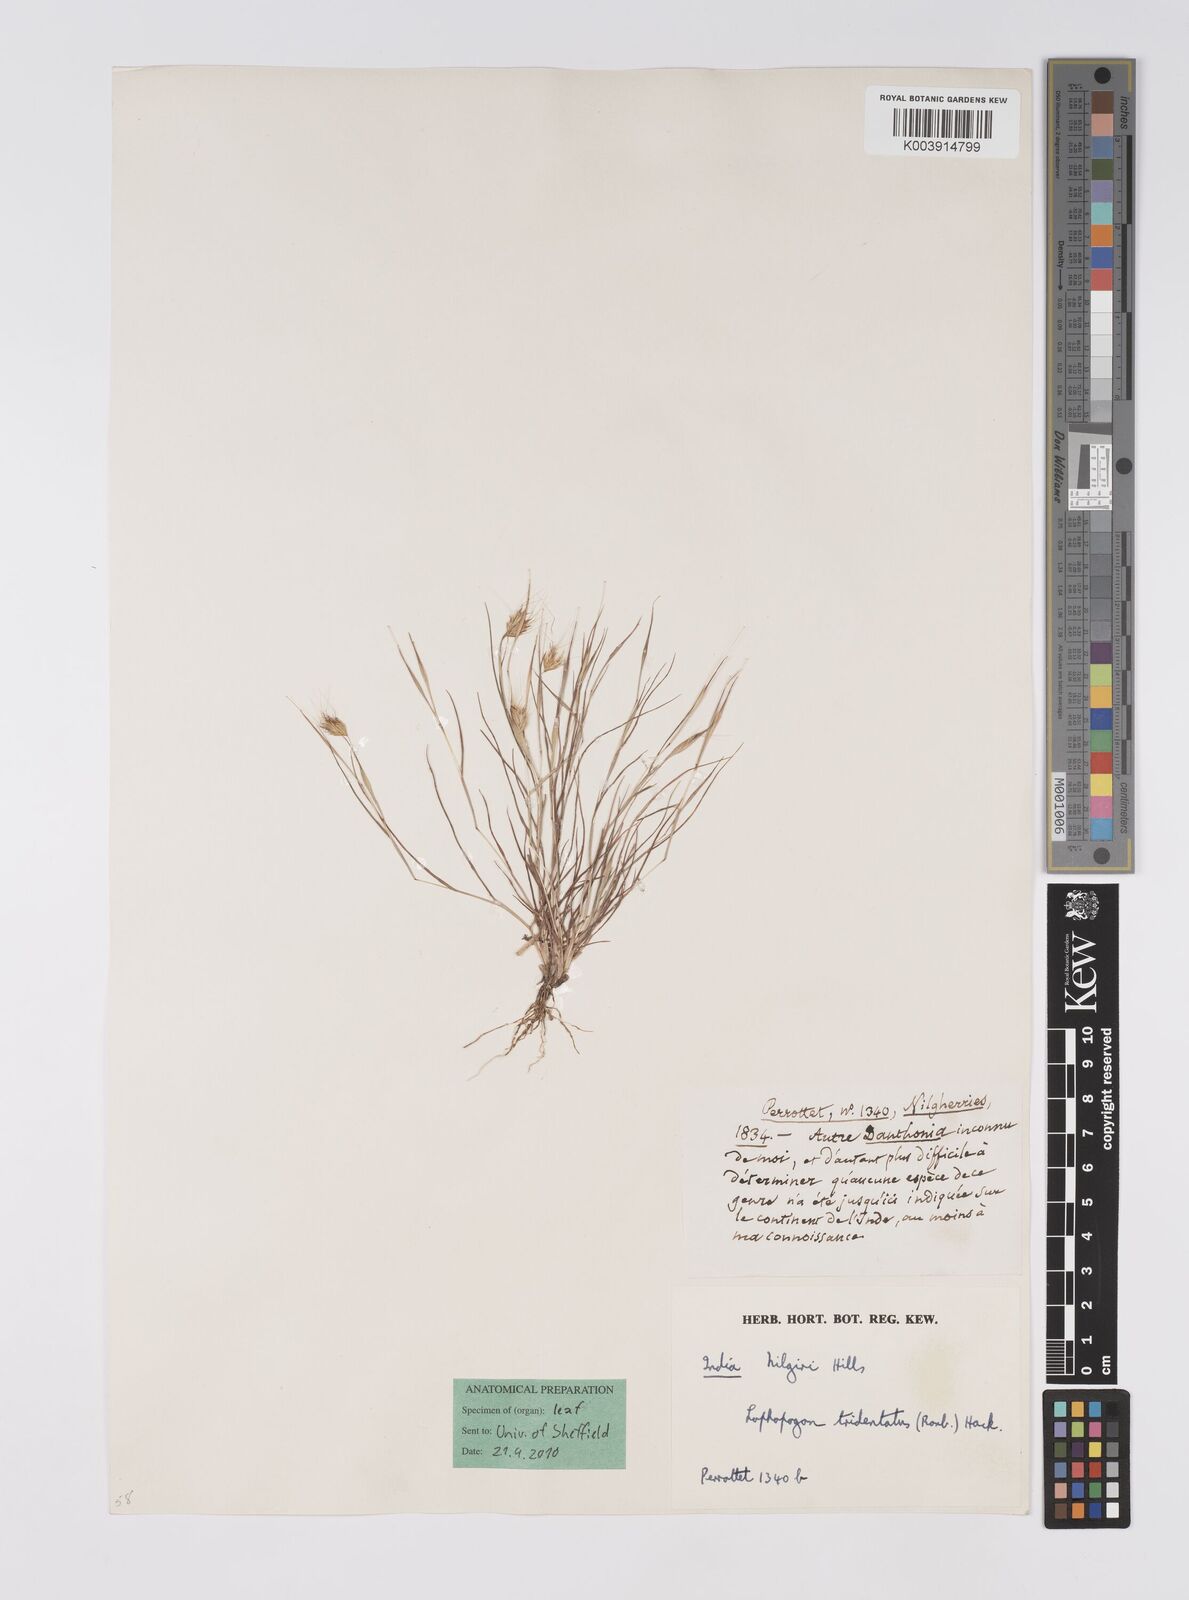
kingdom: Plantae
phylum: Tracheophyta
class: Liliopsida
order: Poales
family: Poaceae
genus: Lophopogon
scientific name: Lophopogon tridentatus
